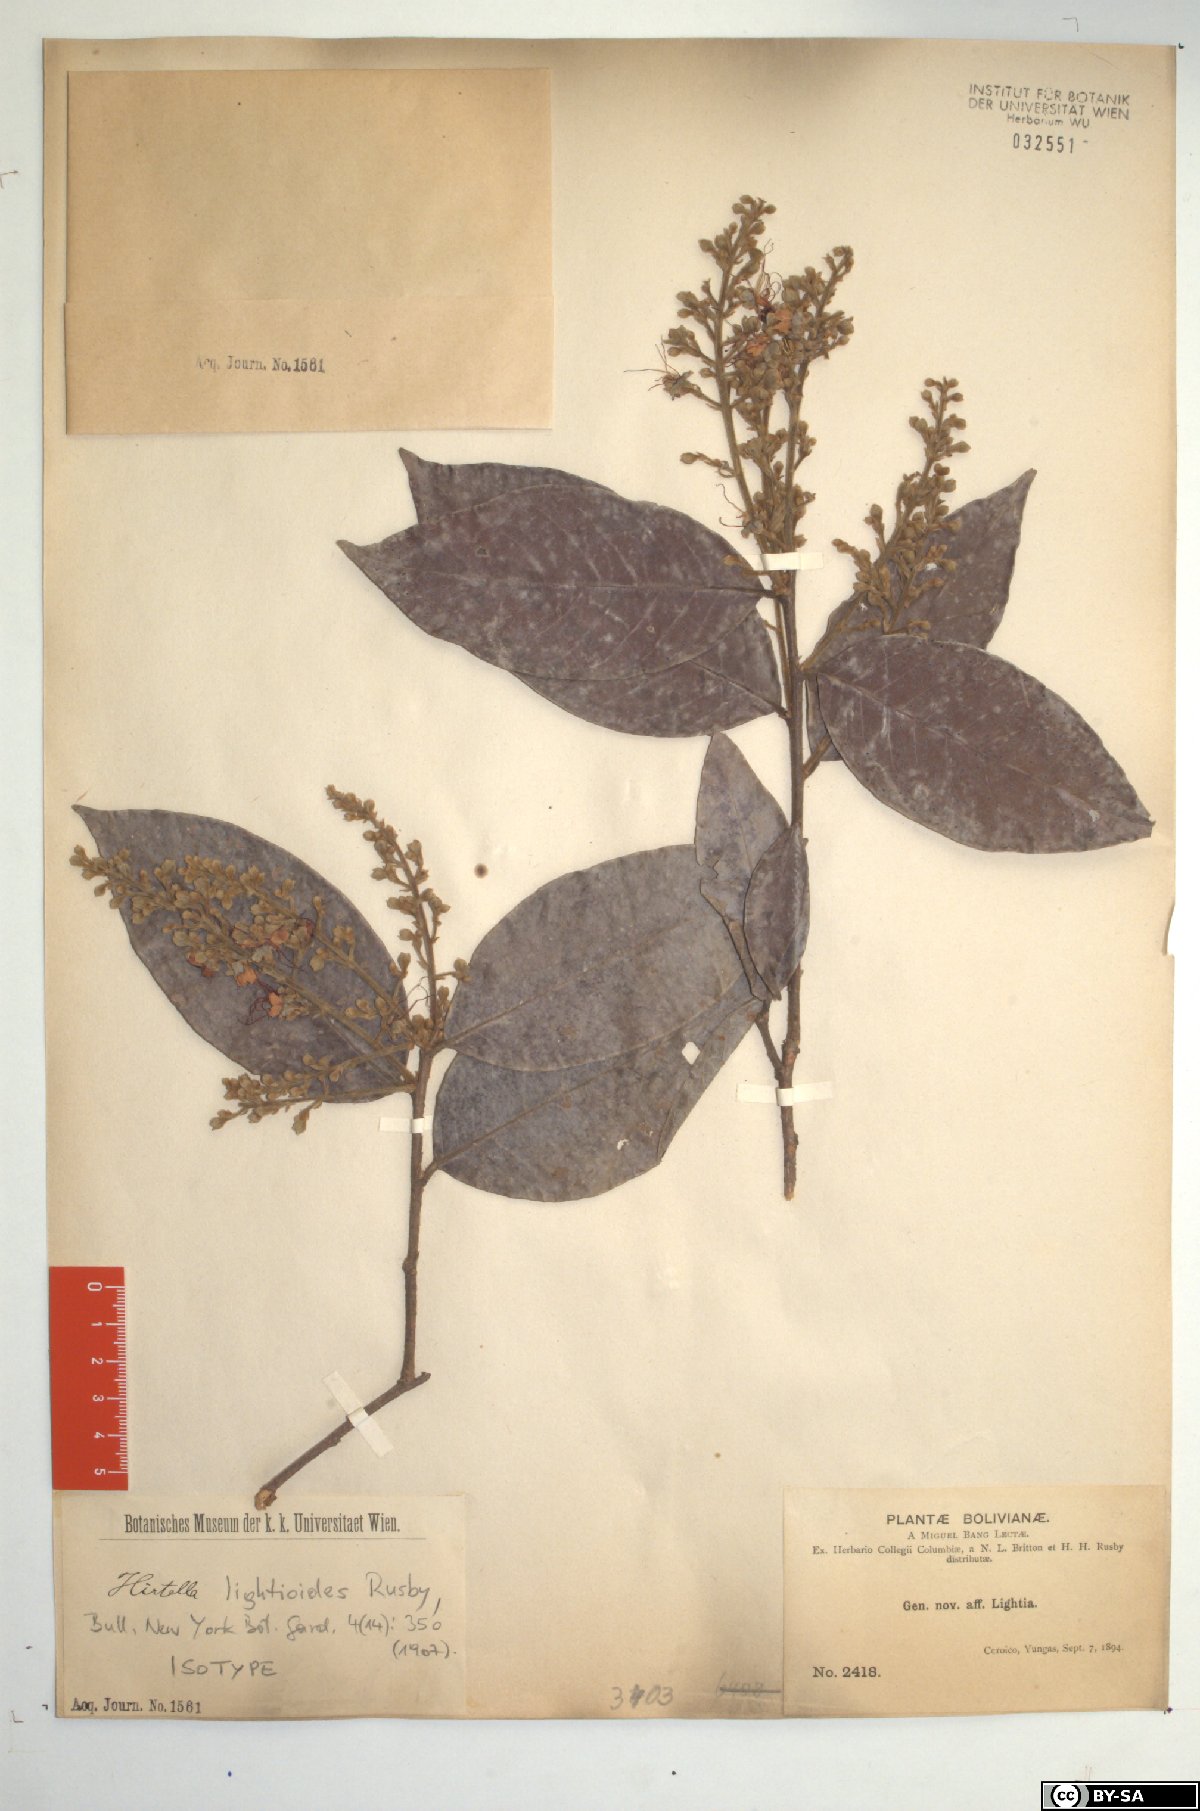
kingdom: Plantae
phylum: Tracheophyta
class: Magnoliopsida
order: Malpighiales
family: Chrysobalanaceae
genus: Hirtella
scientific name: Hirtella lightioides
